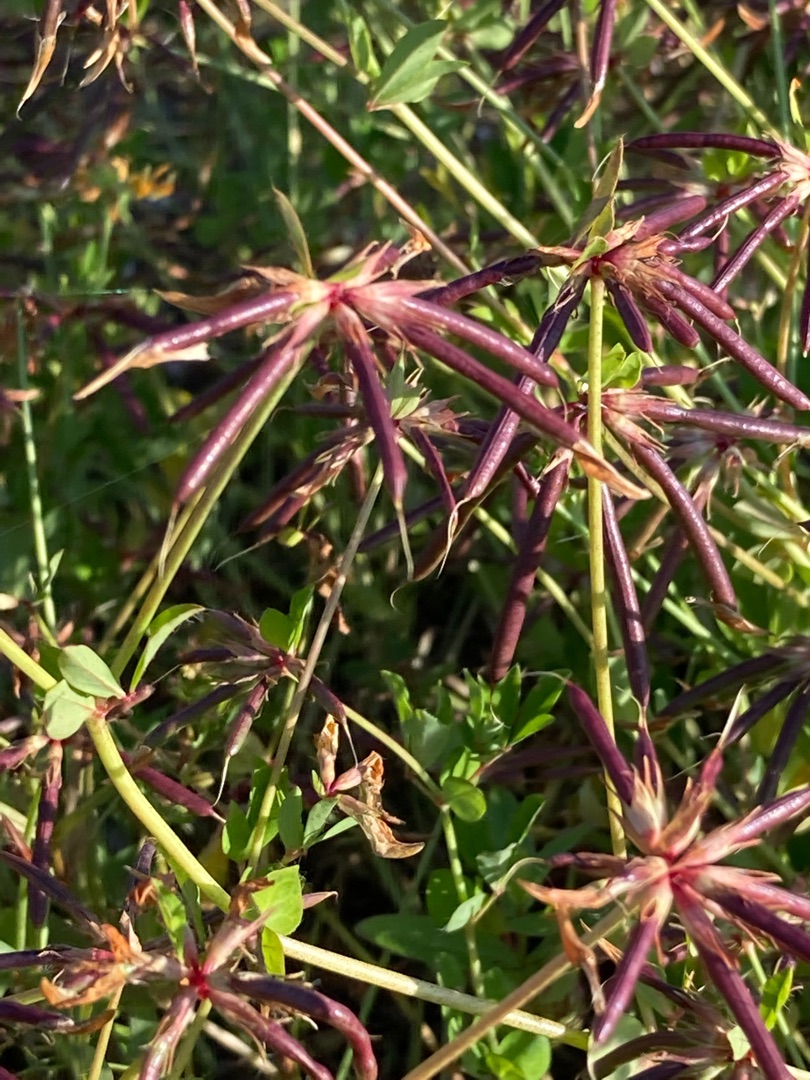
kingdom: Plantae
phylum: Tracheophyta
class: Magnoliopsida
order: Fabales
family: Fabaceae
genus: Lotus
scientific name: Lotus pedunculatus
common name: Sump-kællingetand
